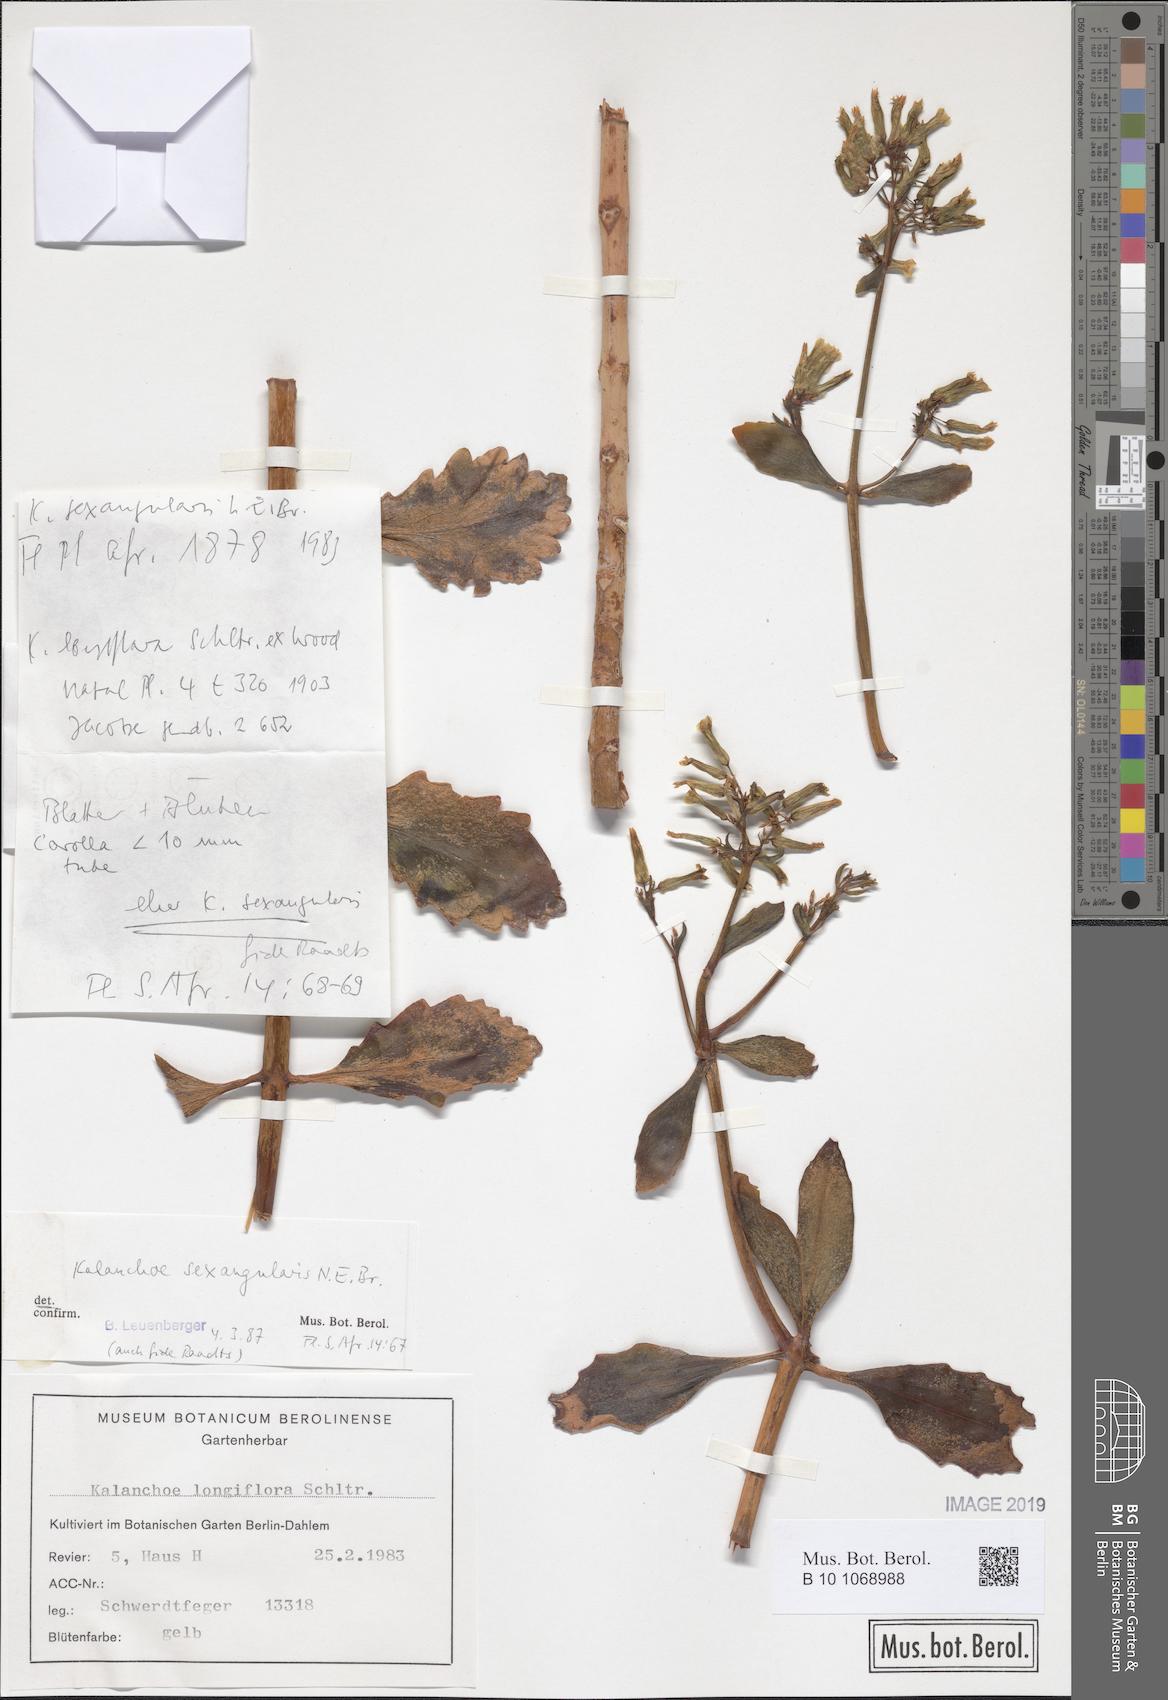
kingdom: Plantae
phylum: Tracheophyta
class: Magnoliopsida
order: Saxifragales
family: Crassulaceae
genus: Kalanchoe
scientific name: Kalanchoe sexangularis
